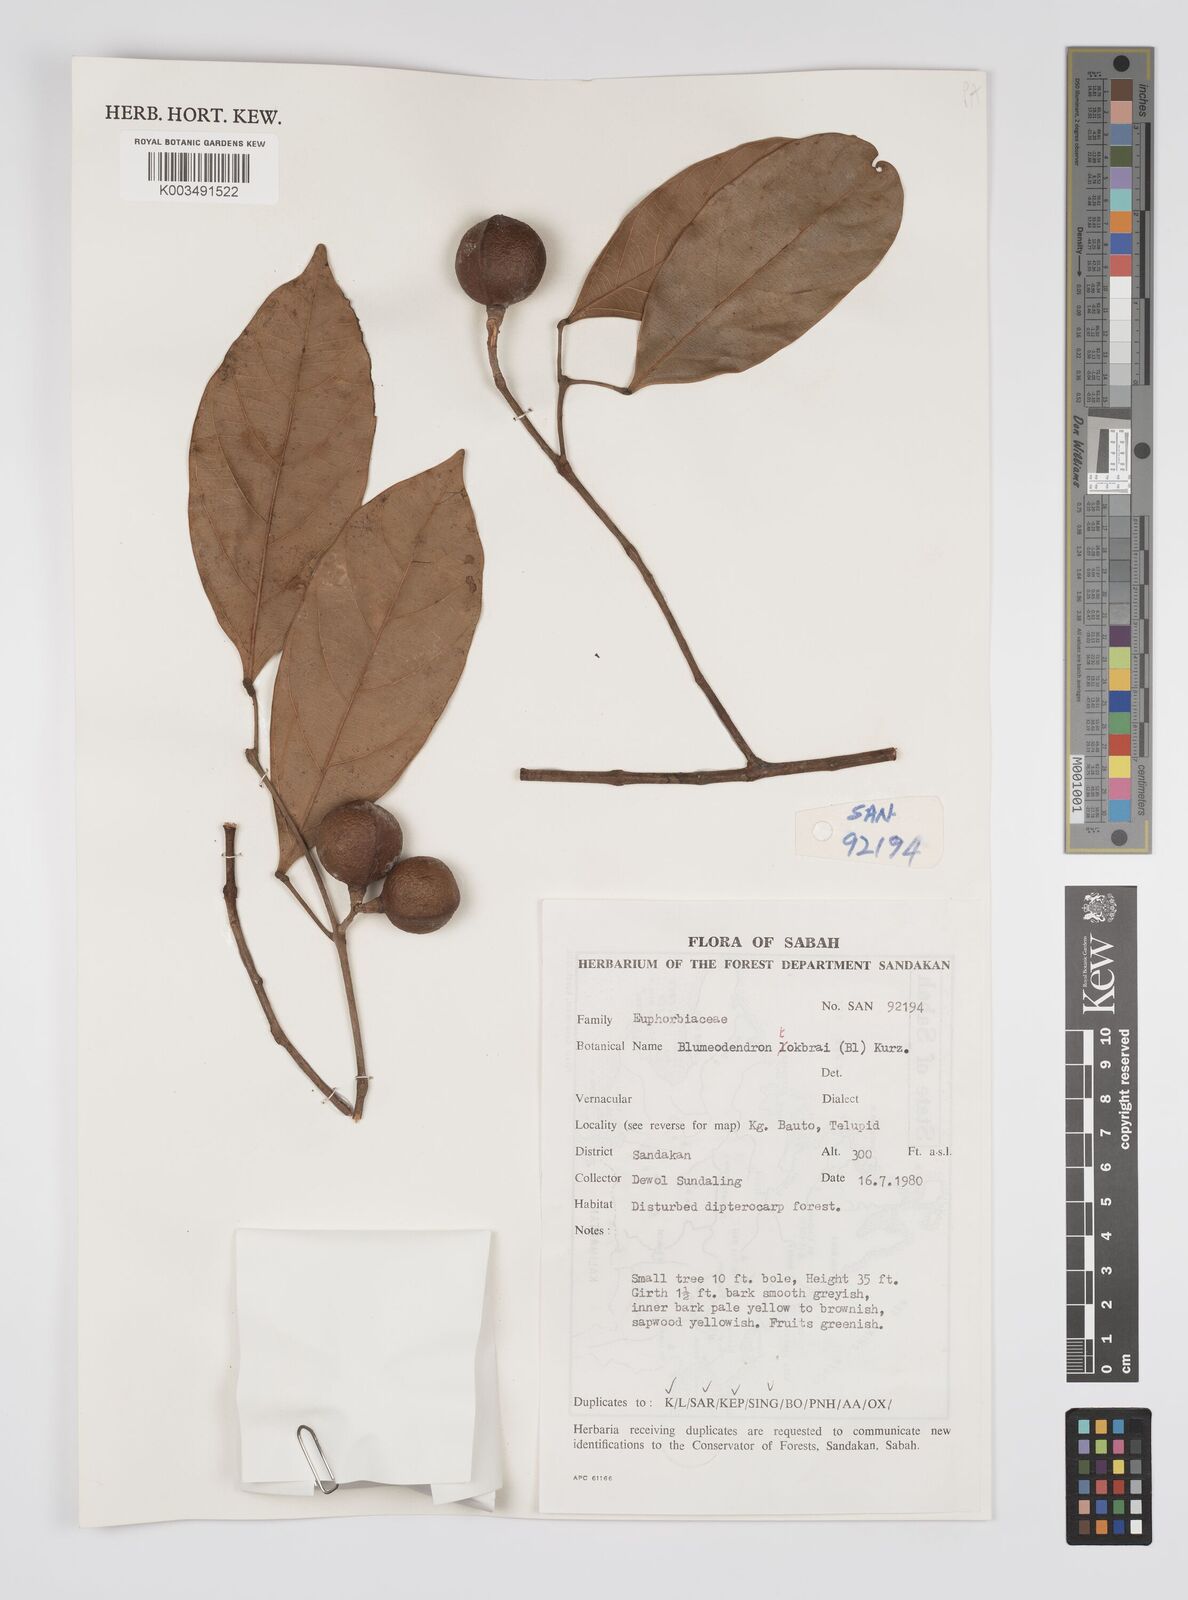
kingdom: Plantae
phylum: Tracheophyta
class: Magnoliopsida
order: Malpighiales
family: Euphorbiaceae
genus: Blumeodendron
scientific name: Blumeodendron tokbrai
